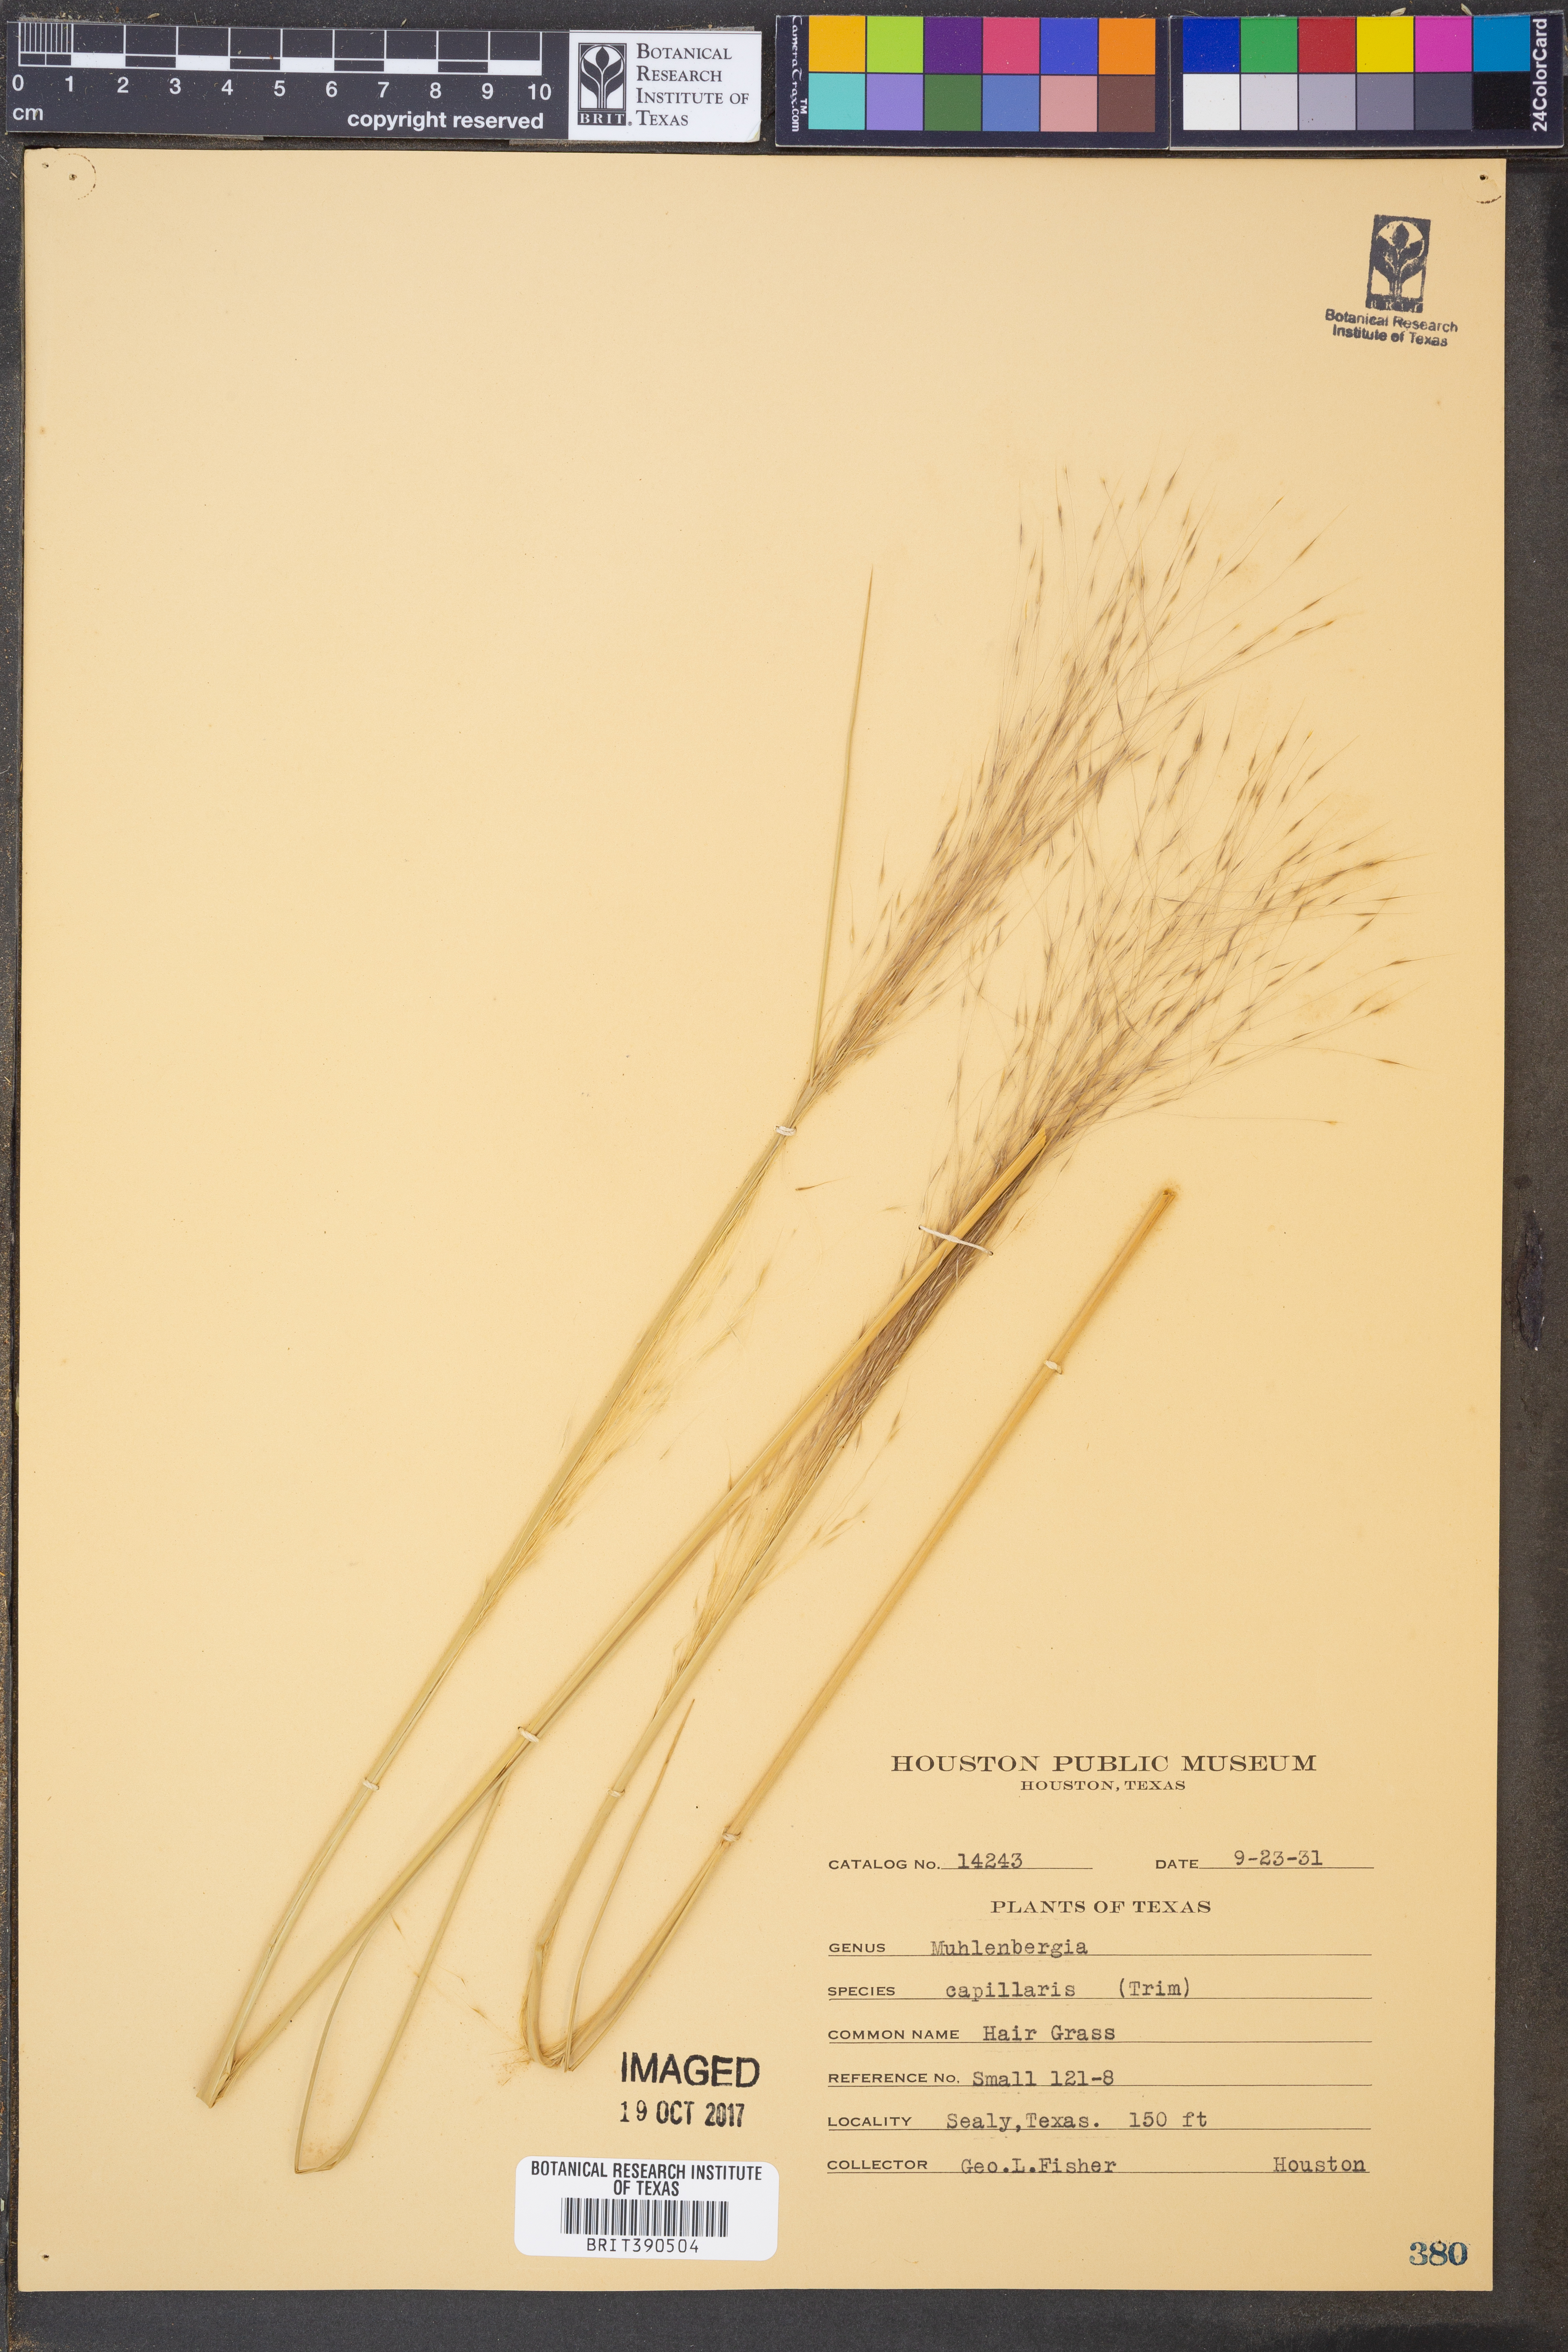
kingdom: Plantae
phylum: Tracheophyta
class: Liliopsida
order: Poales
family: Poaceae
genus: Muhlenbergia
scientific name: Muhlenbergia capillaris
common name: Purple grass
